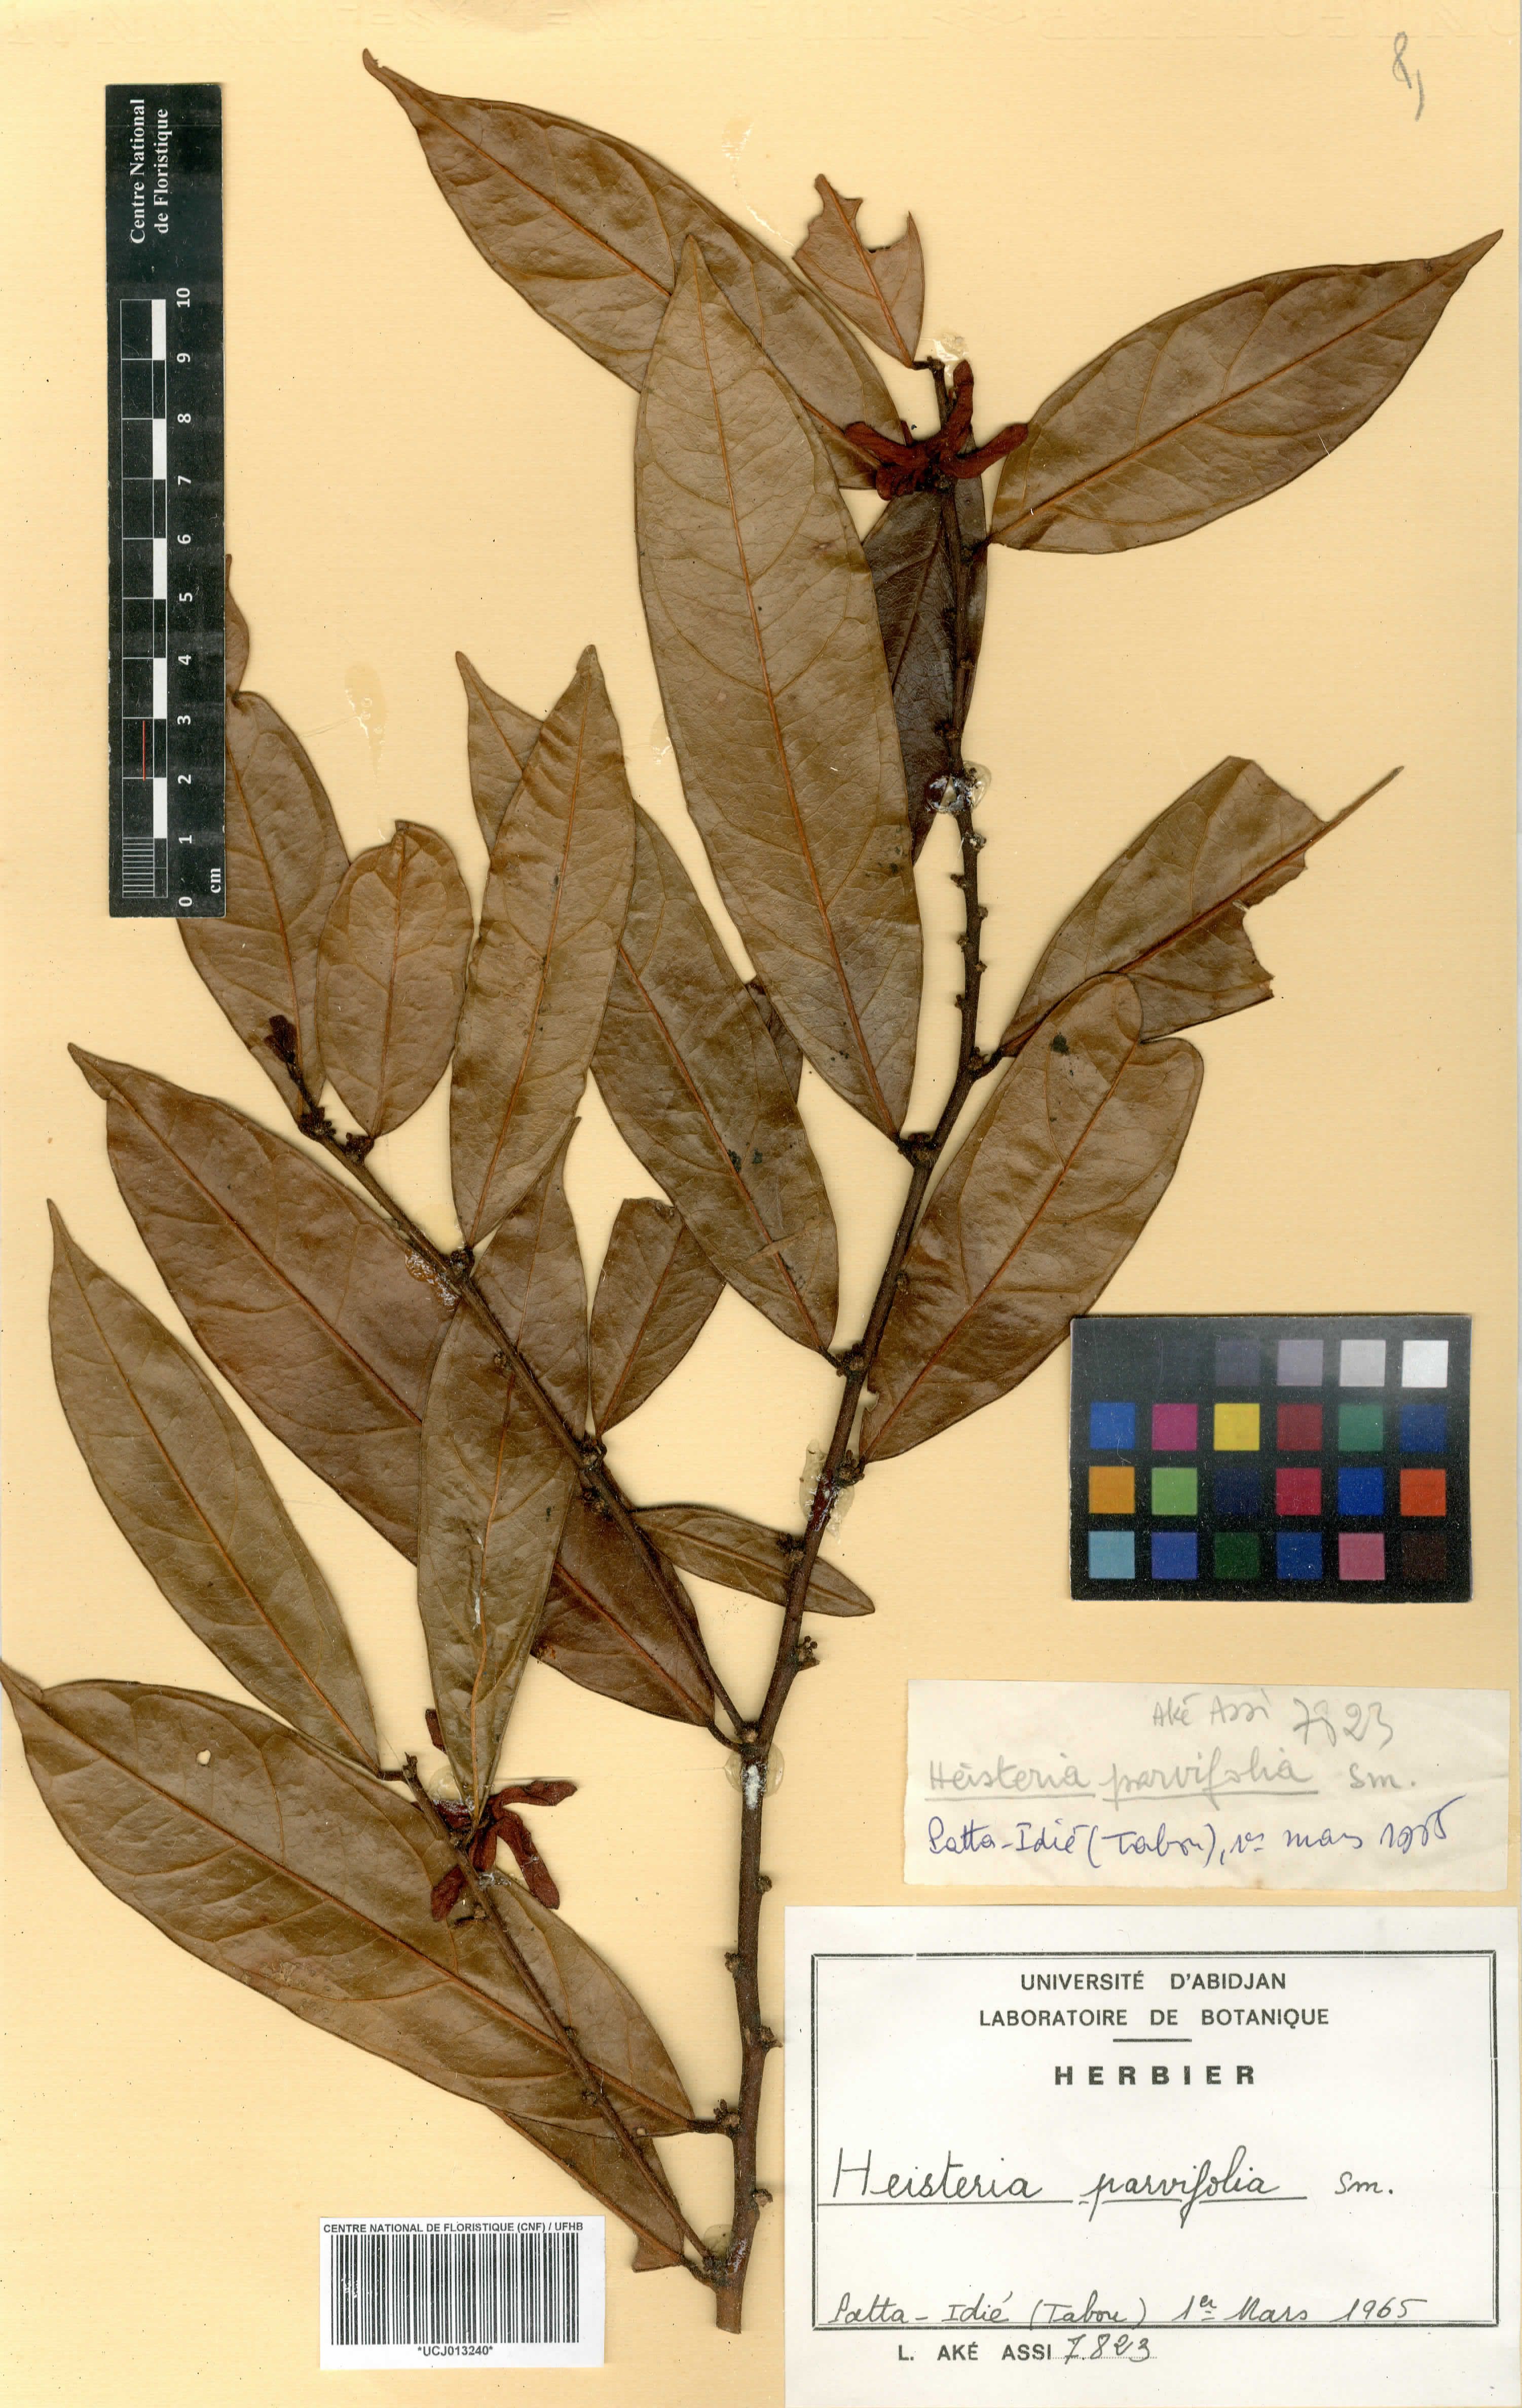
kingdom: Plantae
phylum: Tracheophyta
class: Magnoliopsida
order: Santalales
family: Erythropalaceae
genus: Heisteria
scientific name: Heisteria parvifolia
